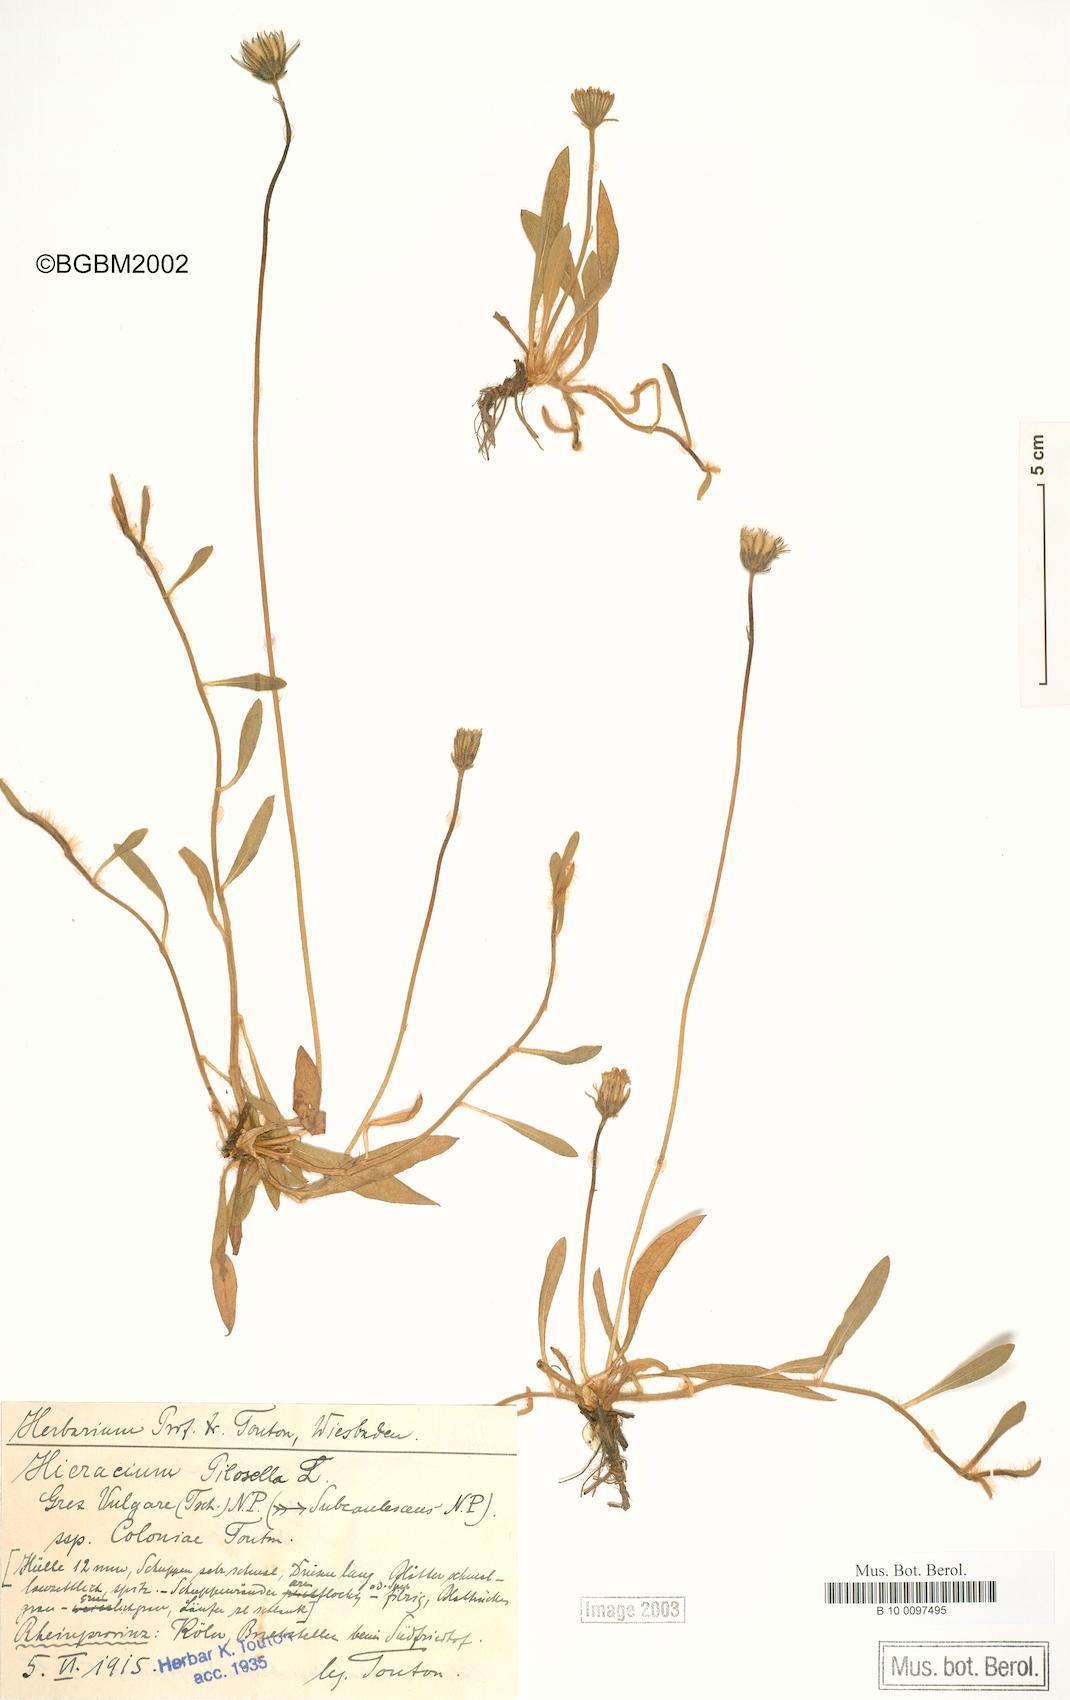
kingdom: Plantae
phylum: Tracheophyta
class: Magnoliopsida
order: Asterales
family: Asteraceae
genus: Pilosella
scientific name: Pilosella officinarum
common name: Mouse-ear hawkweed
